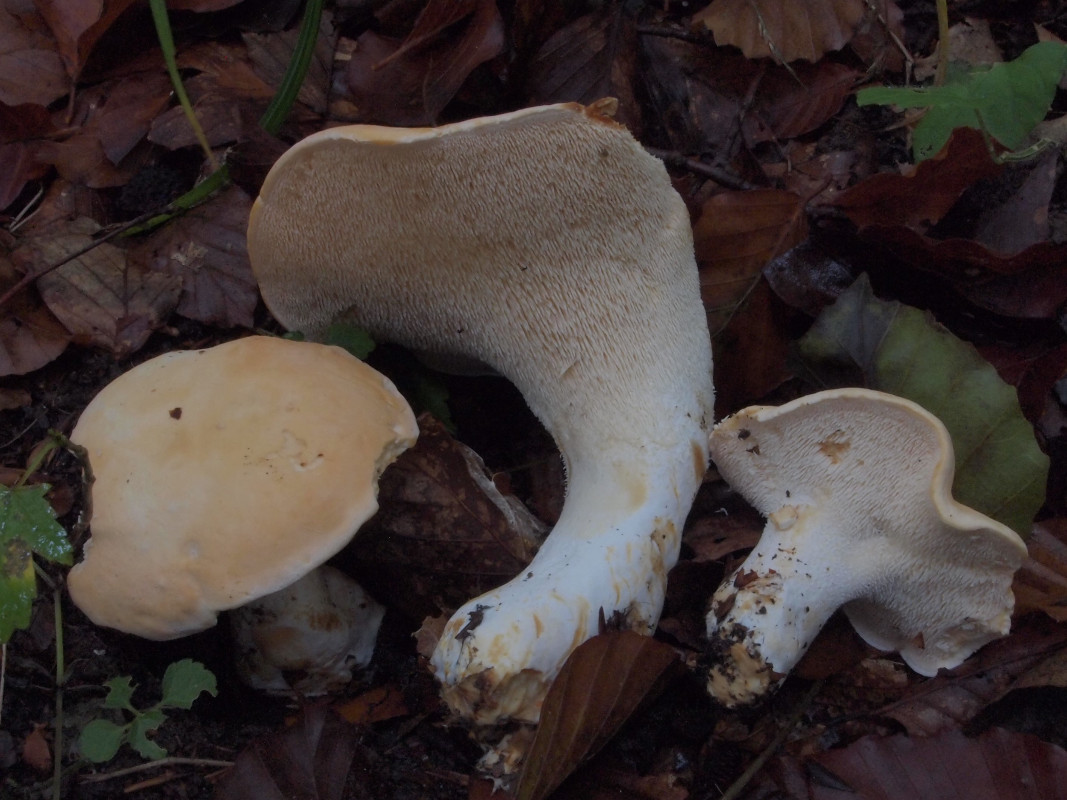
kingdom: Fungi
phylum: Basidiomycota
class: Agaricomycetes
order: Cantharellales
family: Hydnaceae
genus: Hydnum
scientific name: Hydnum repandum
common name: almindelig pigsvamp
